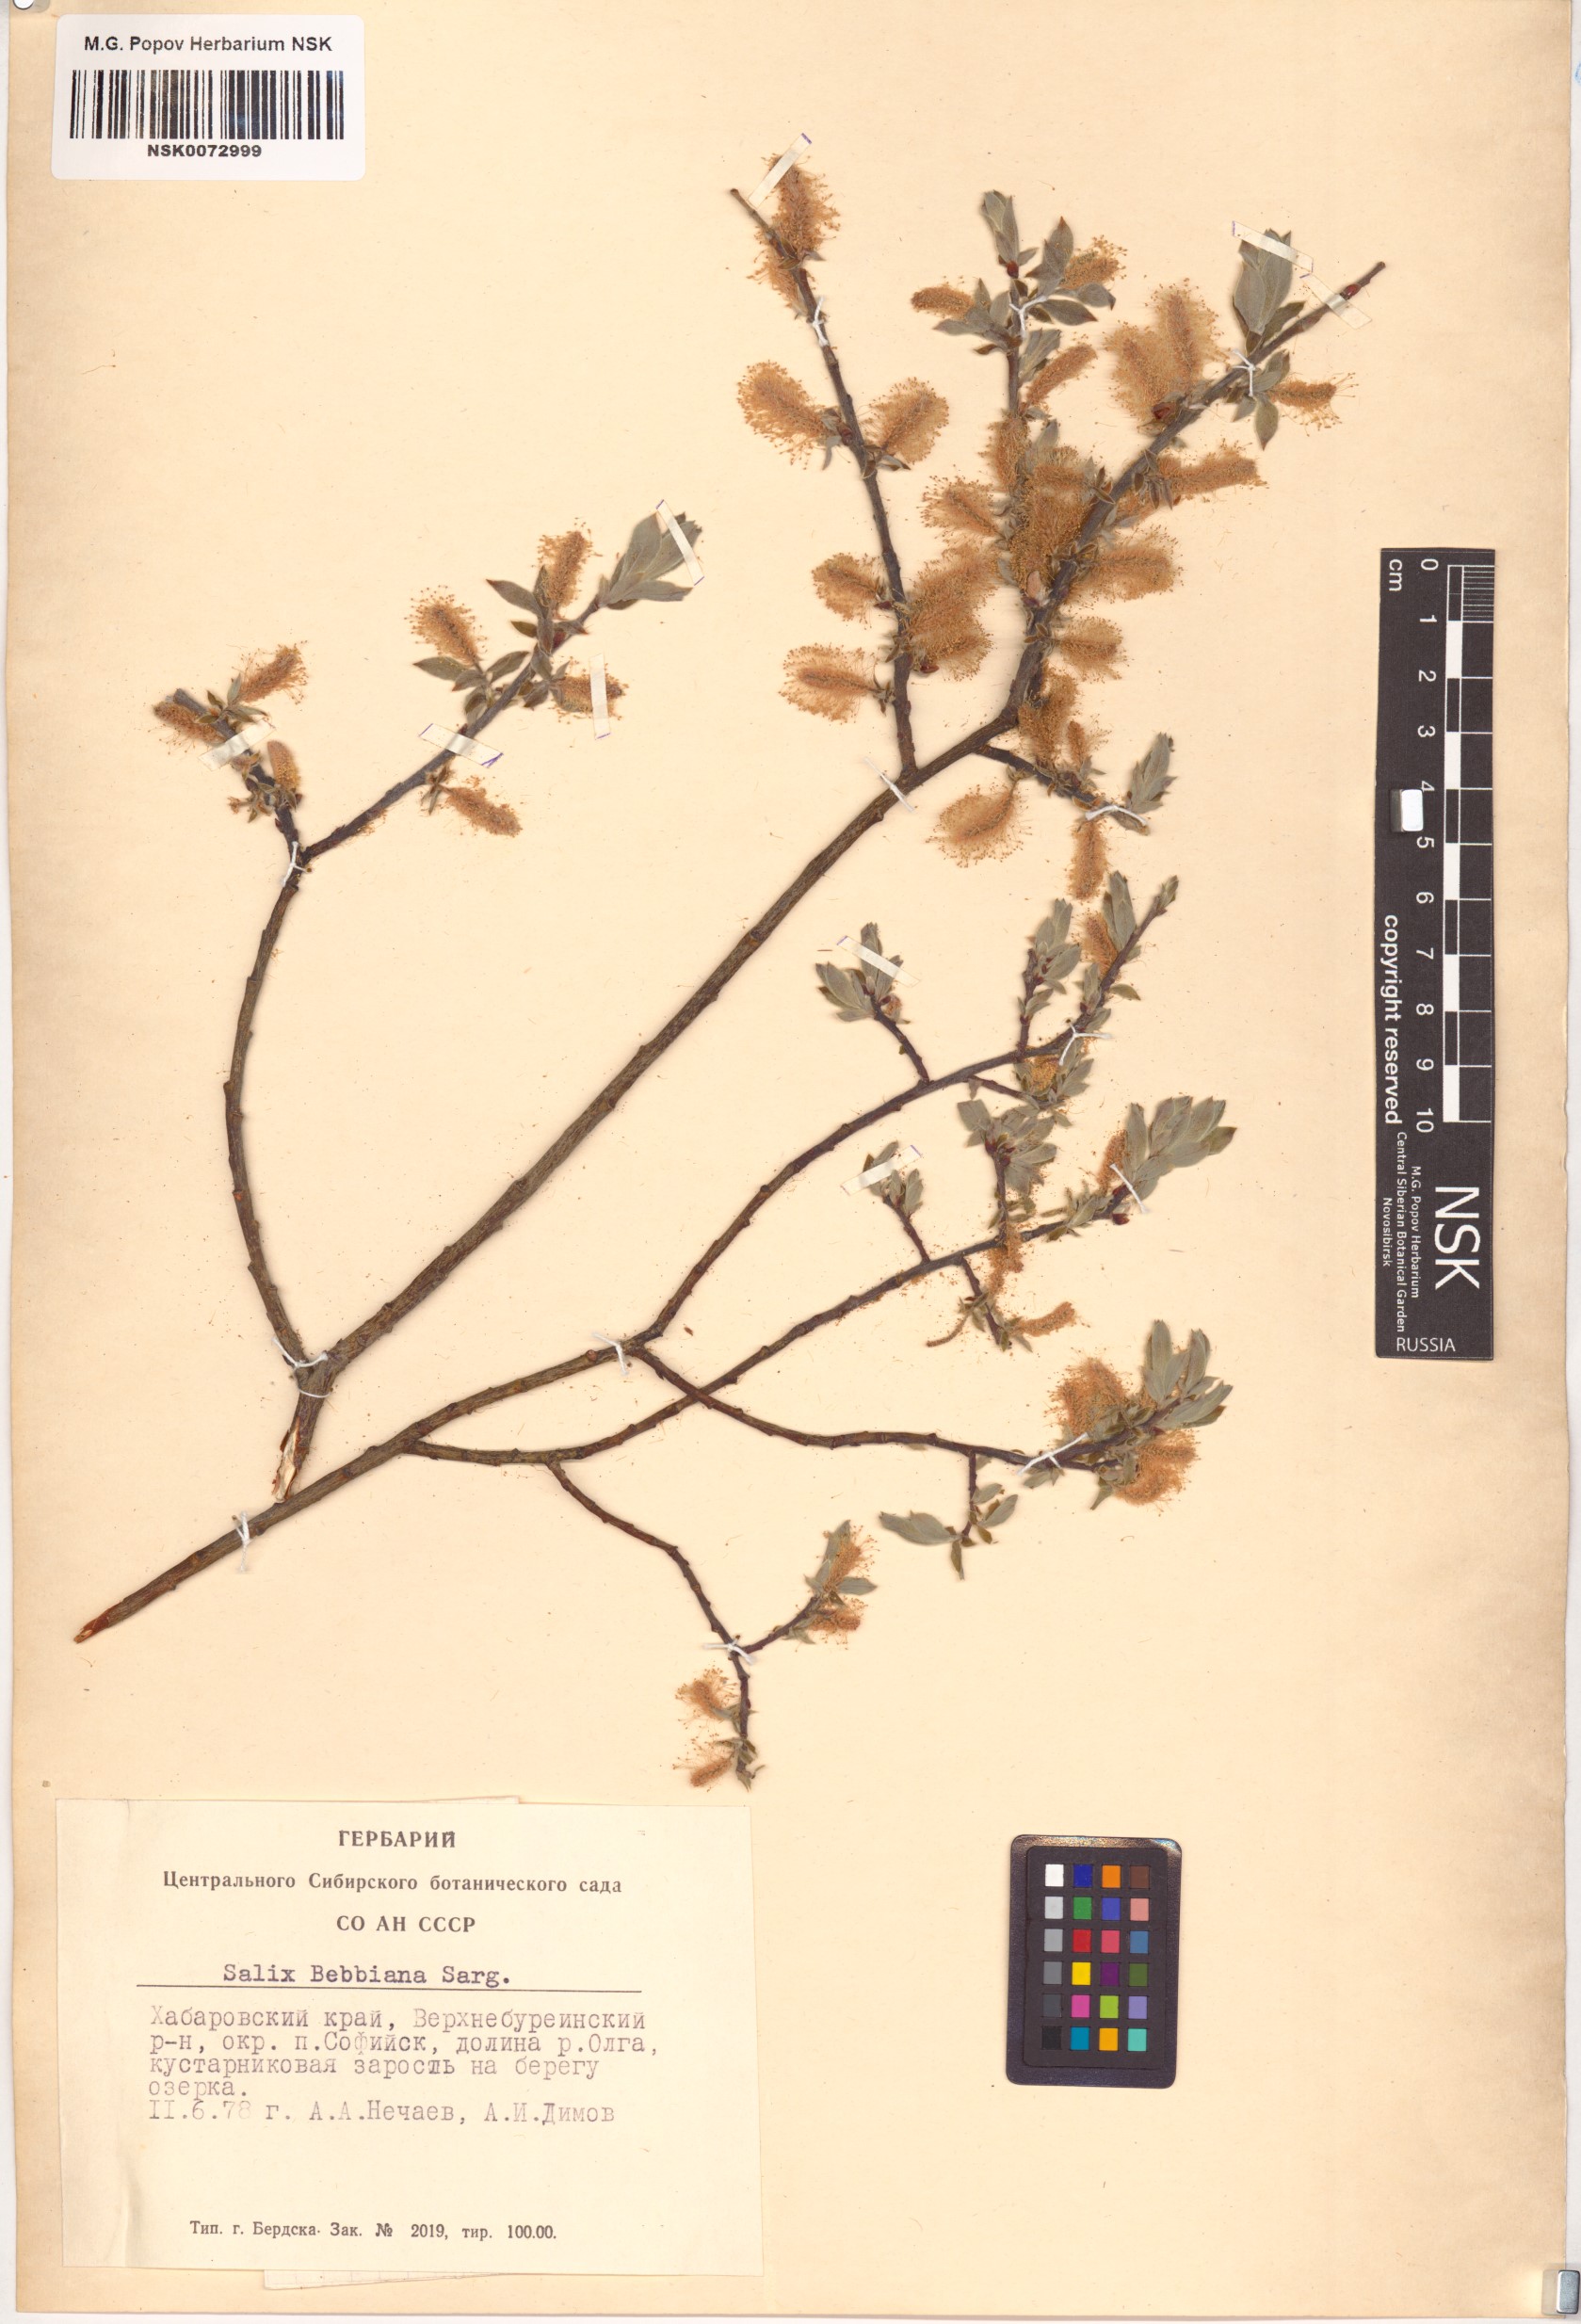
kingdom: Plantae
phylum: Tracheophyta
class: Magnoliopsida
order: Malpighiales
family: Salicaceae
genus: Salix
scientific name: Salix bebbiana
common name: Bebb's willow
